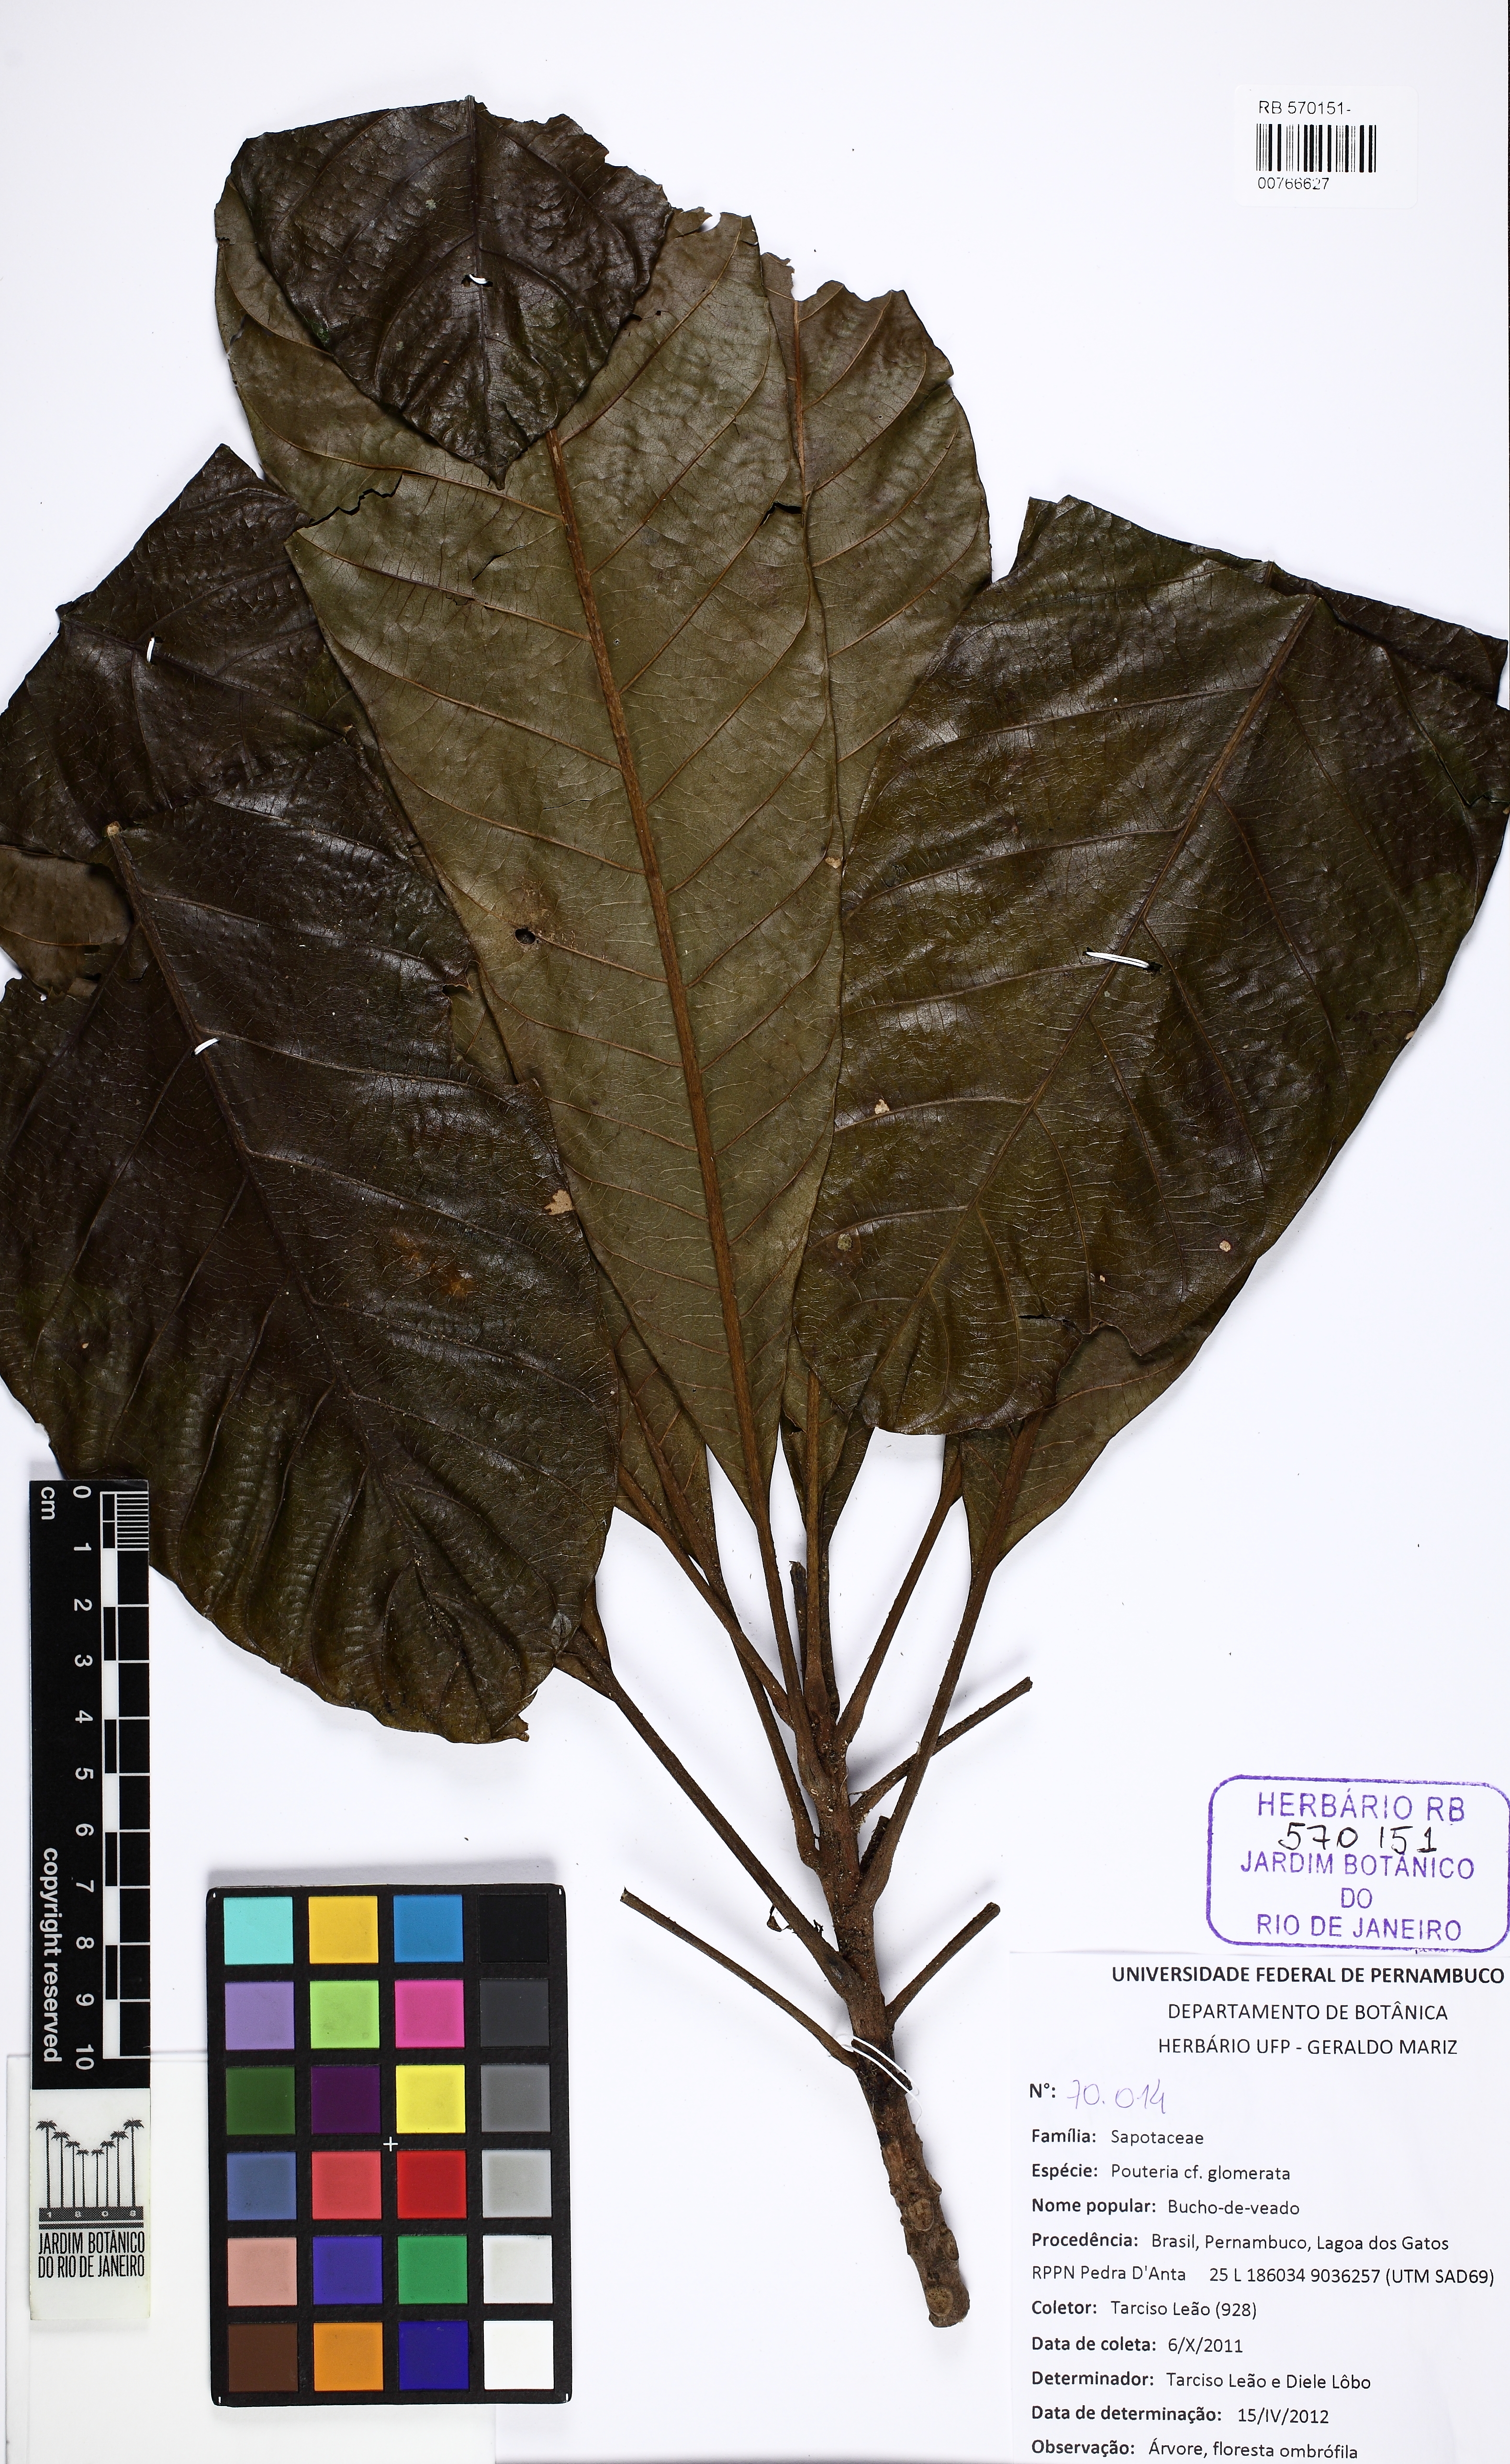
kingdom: Plantae
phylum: Tracheophyta
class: Magnoliopsida
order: Ericales
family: Sapotaceae
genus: Pouteria
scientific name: Pouteria glomerata
